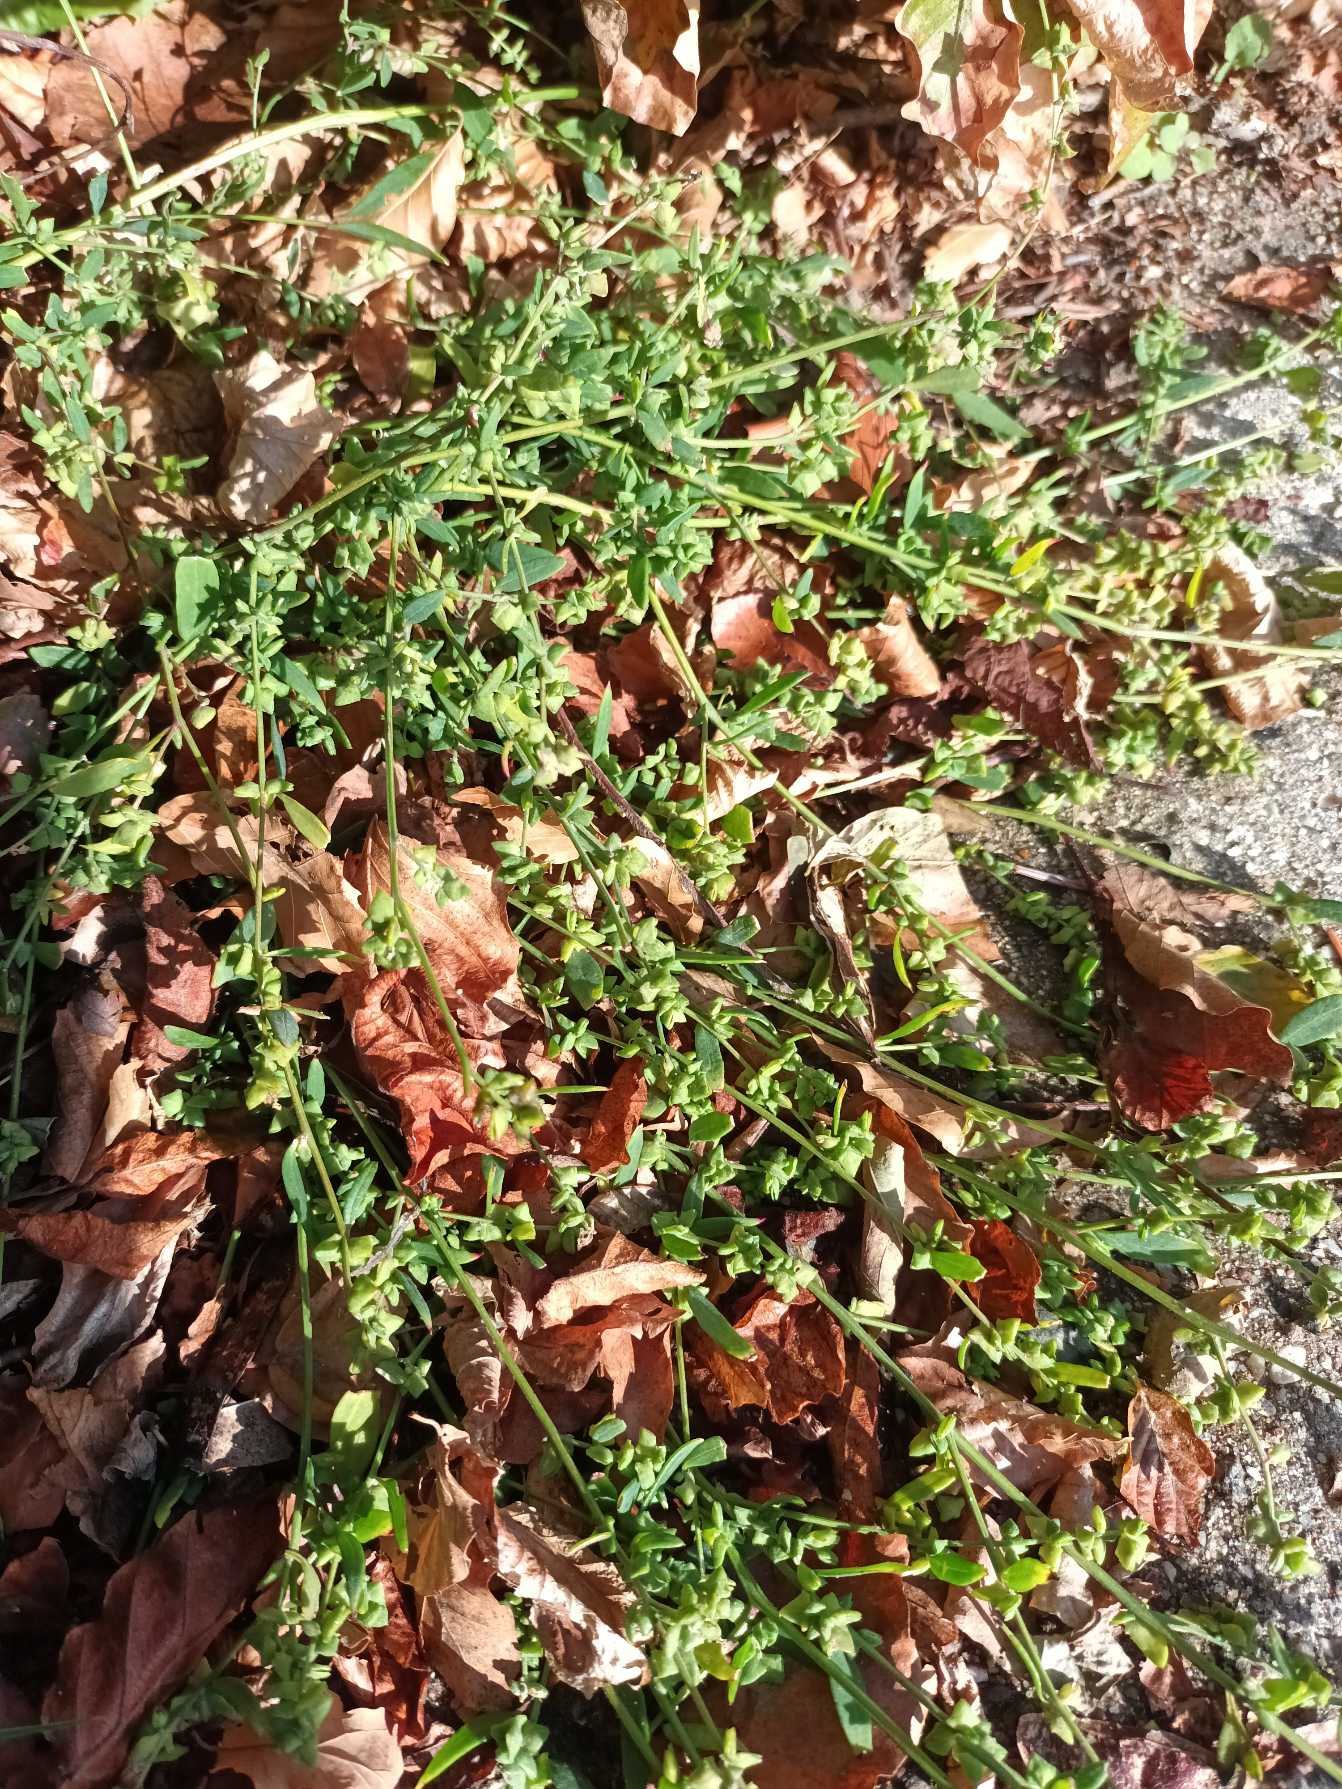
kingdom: Plantae
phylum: Tracheophyta
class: Magnoliopsida
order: Caryophyllales
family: Amaranthaceae
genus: Atriplex
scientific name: Atriplex patula
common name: Svine-mælde
